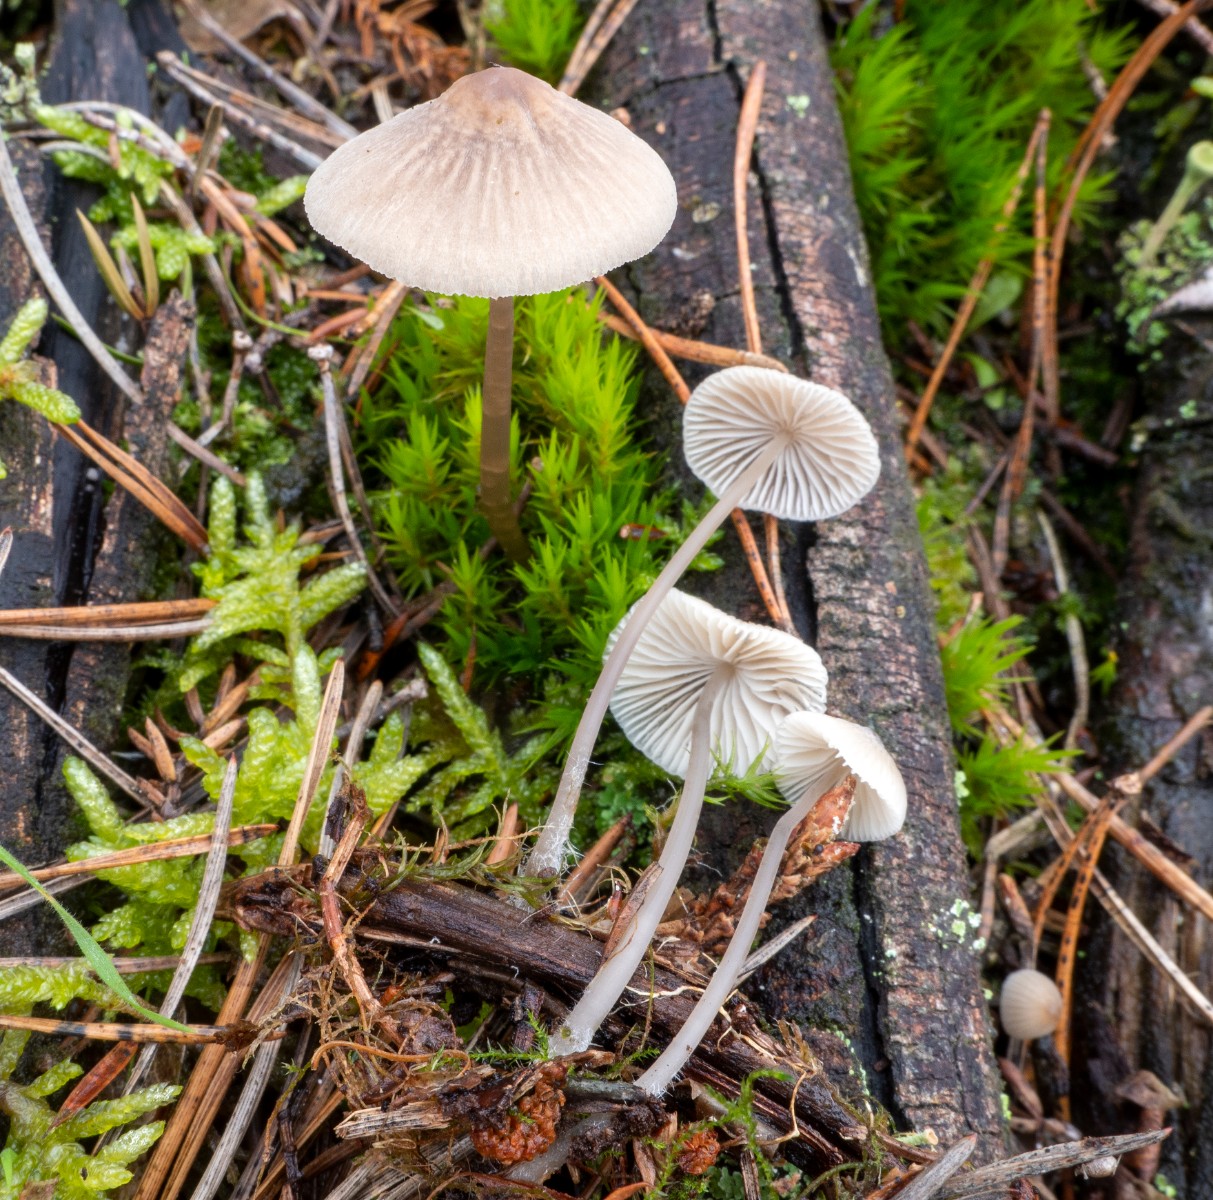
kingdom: Fungi
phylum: Basidiomycota
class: Agaricomycetes
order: Agaricales
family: Mycenaceae
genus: Mycena
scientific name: Mycena arcangeliana
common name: oliven-huesvamp
